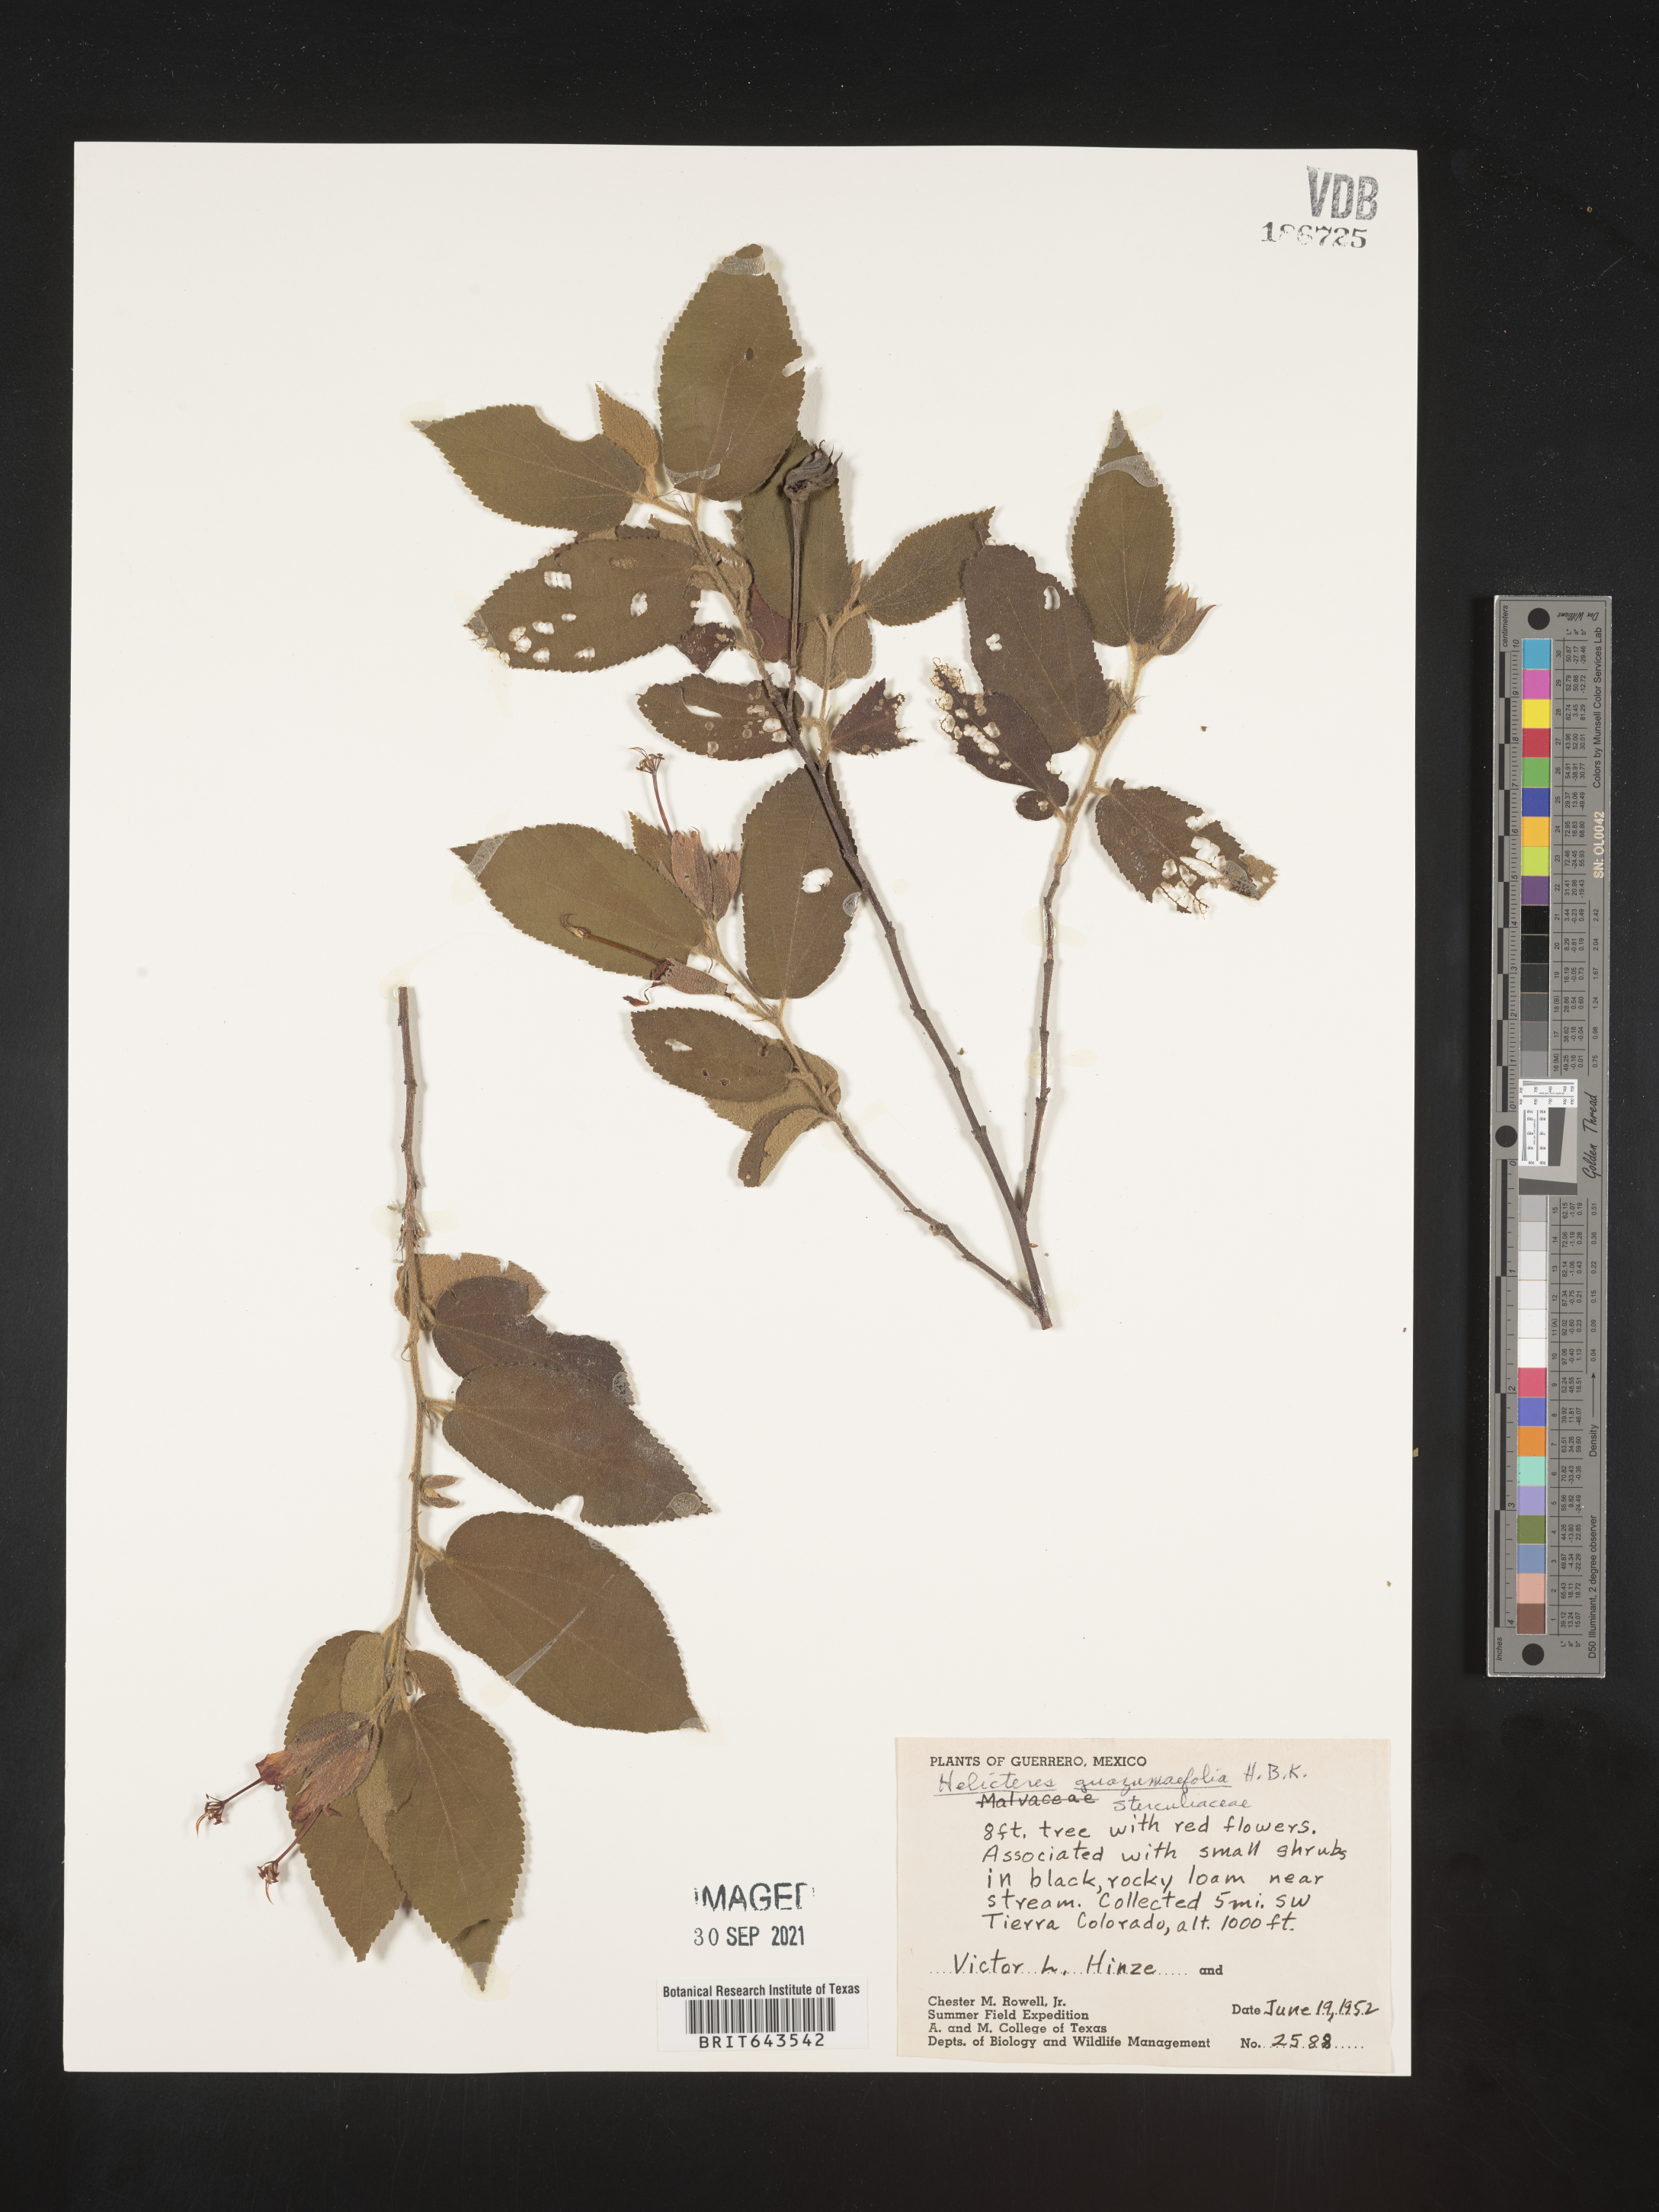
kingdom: Plantae
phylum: Tracheophyta
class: Magnoliopsida
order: Malvales
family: Malvaceae
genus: Helicteres
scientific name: Helicteres
